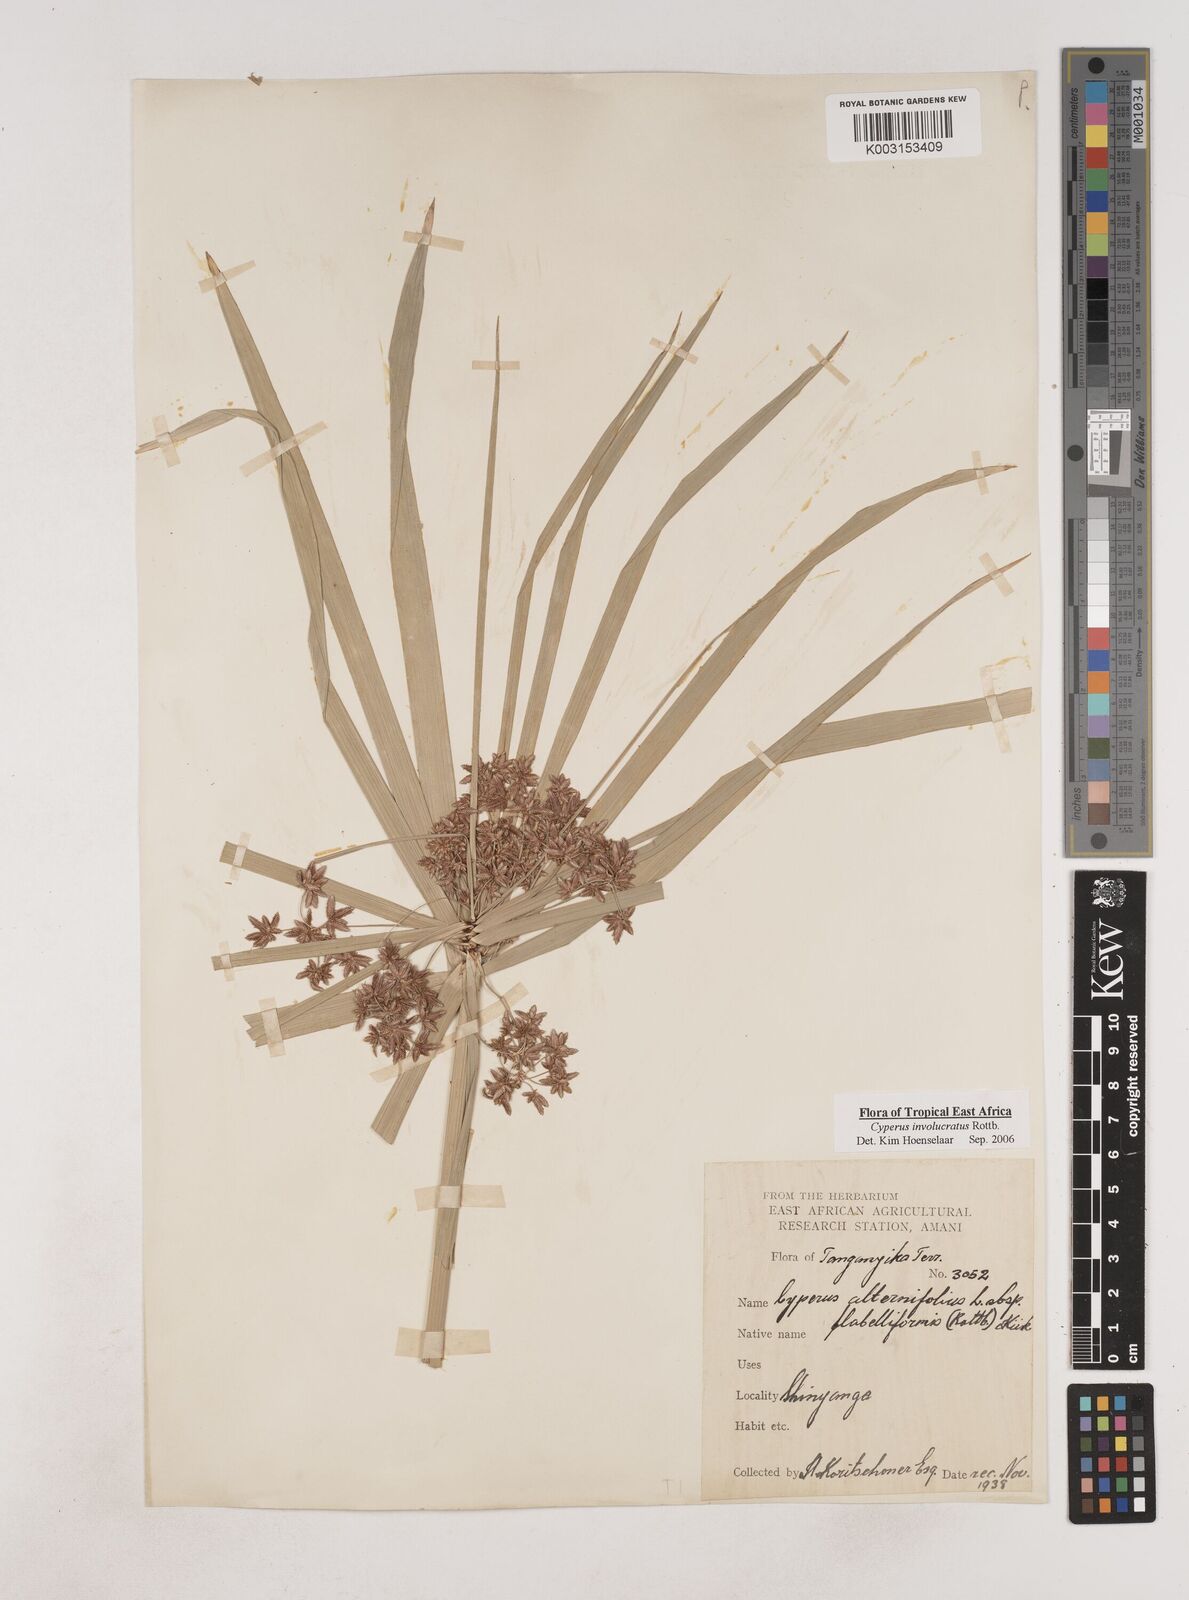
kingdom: Plantae
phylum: Tracheophyta
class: Liliopsida
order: Poales
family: Cyperaceae
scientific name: Cyperaceae
